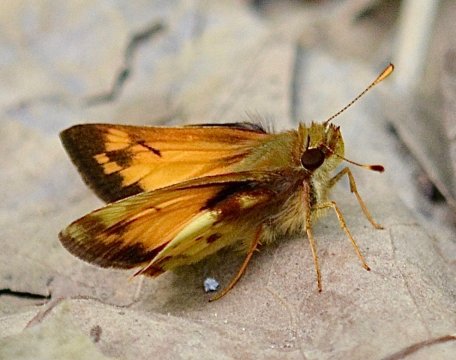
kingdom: Animalia
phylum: Arthropoda
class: Insecta
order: Lepidoptera
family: Hesperiidae
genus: Lon
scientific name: Lon zabulon
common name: Zabulon Skipper
